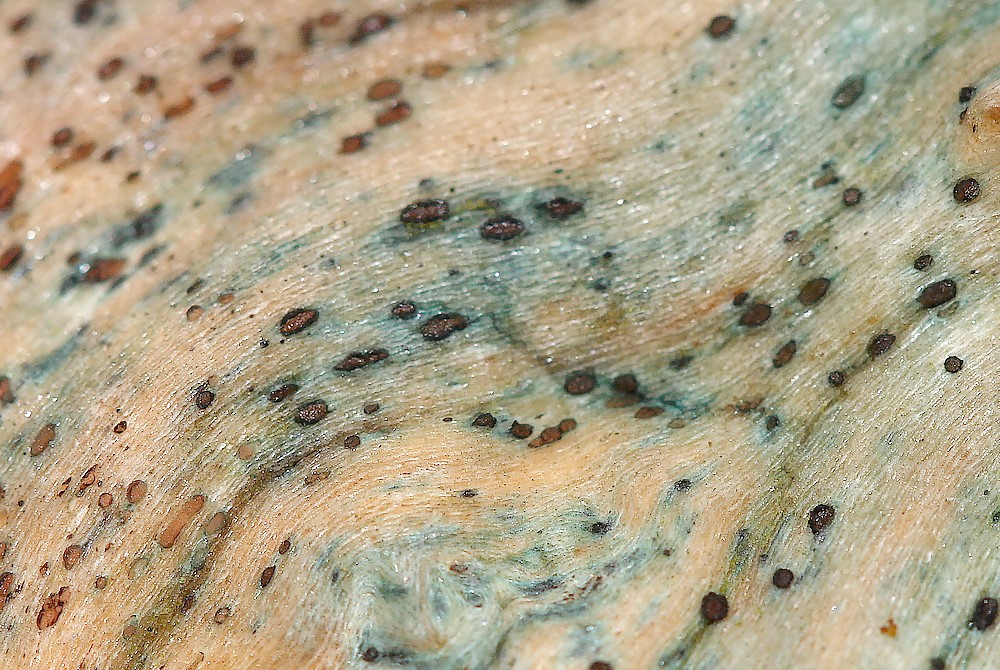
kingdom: Fungi
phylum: Ascomycota
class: Leotiomycetes
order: Helotiales
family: Helotiaceae
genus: Durella
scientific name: Durella atrocyanea
